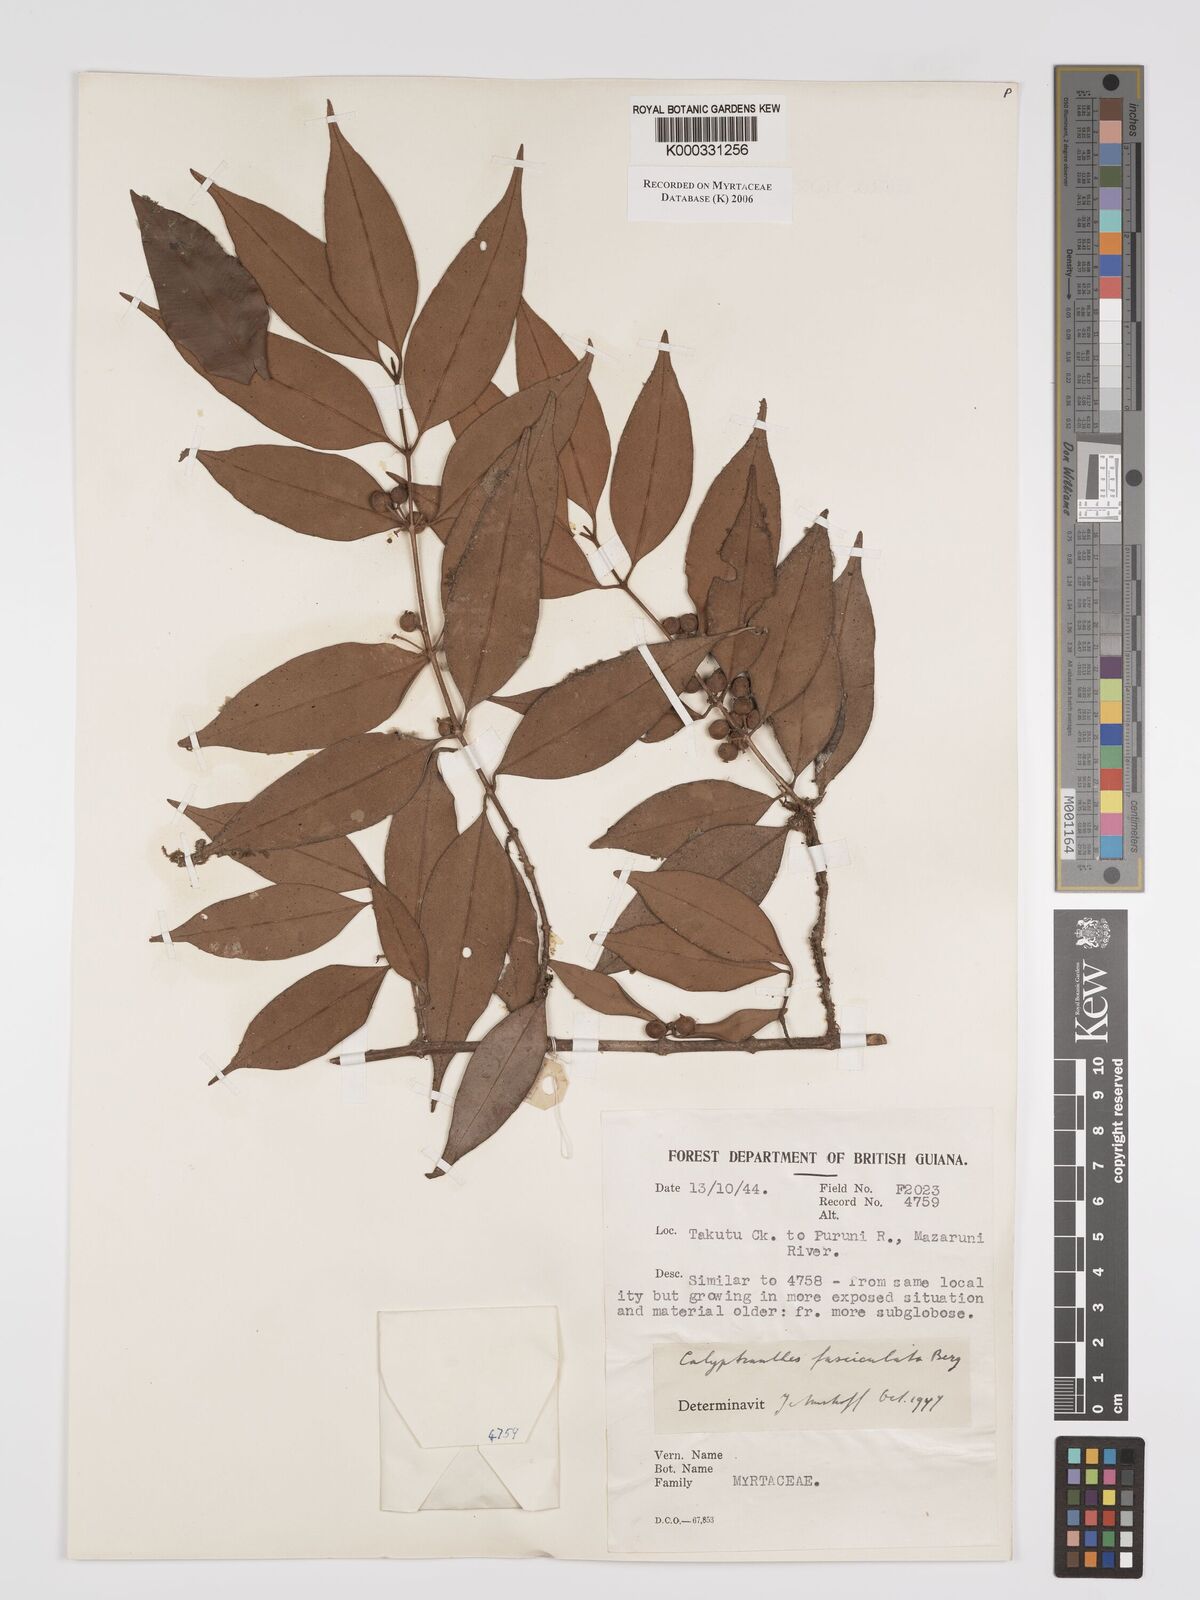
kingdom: Plantae
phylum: Tracheophyta
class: Magnoliopsida
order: Myrtales
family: Myrtaceae
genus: Myrcia
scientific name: Myrcia fasciculata
